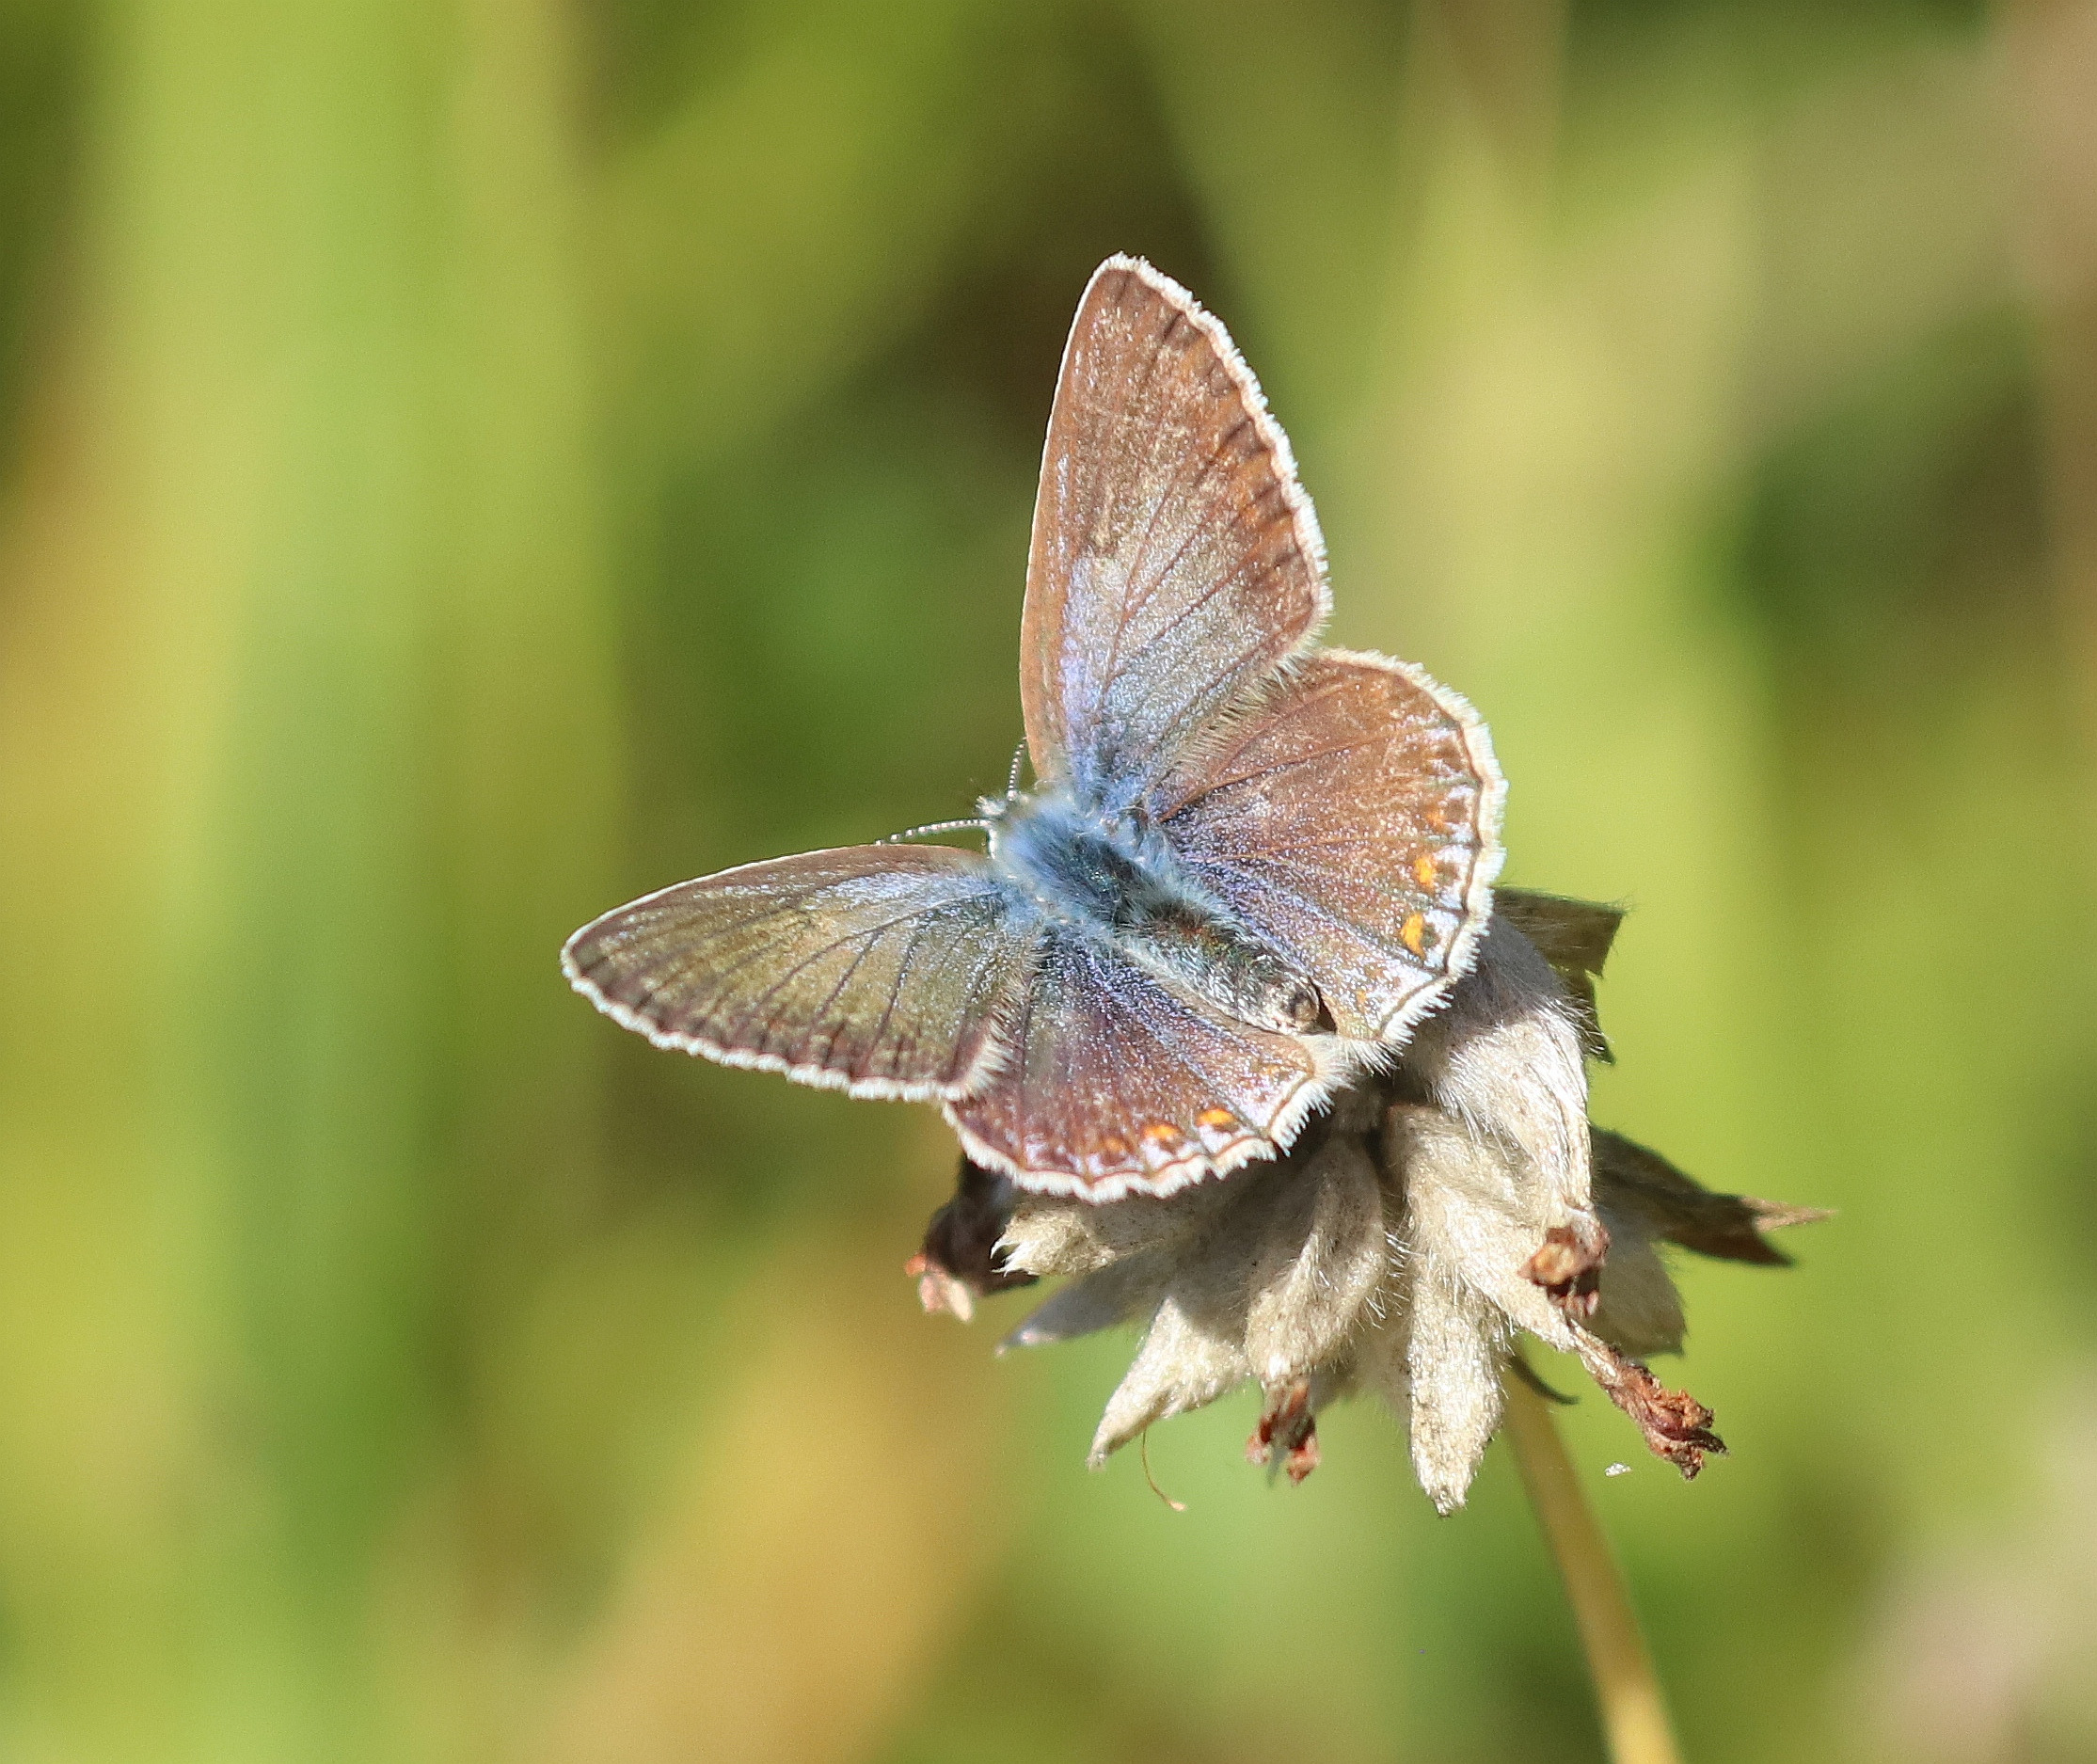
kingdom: Animalia
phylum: Arthropoda
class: Insecta
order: Lepidoptera
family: Lycaenidae
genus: Polyommatus
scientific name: Polyommatus icarus
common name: Almindelig blåfugl
